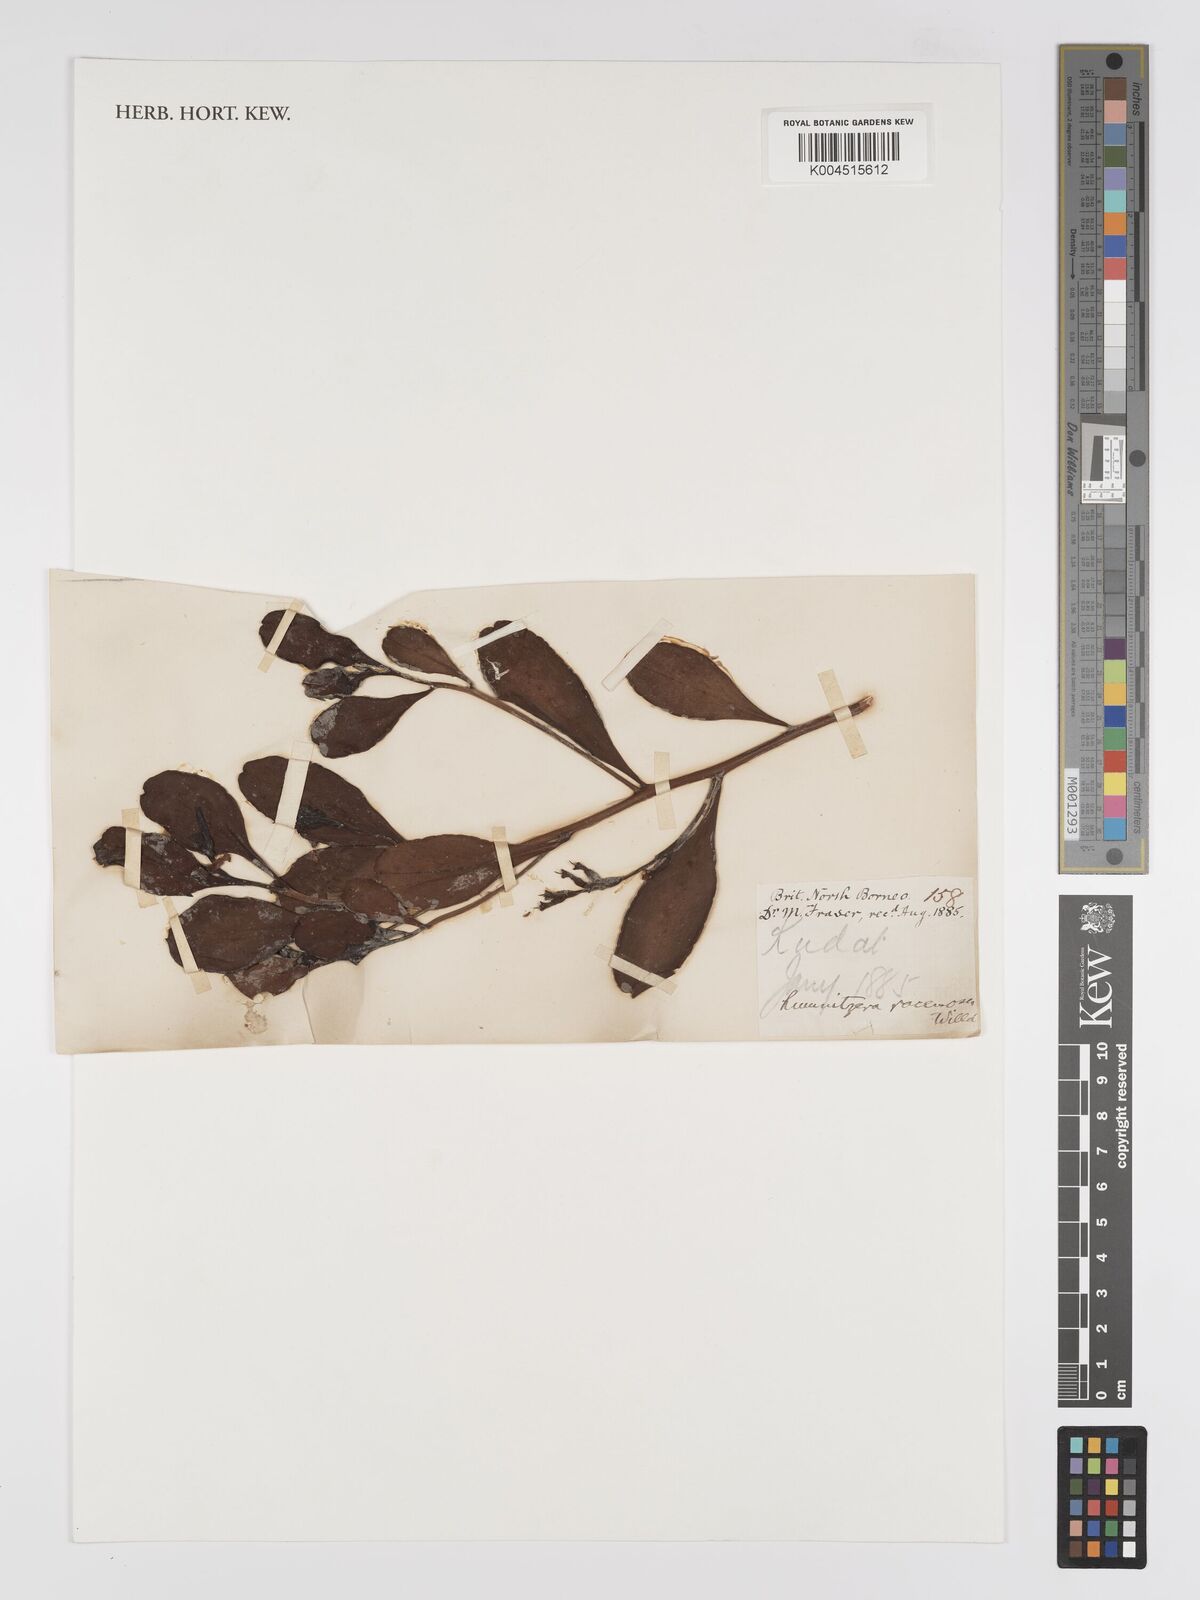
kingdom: Plantae
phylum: Tracheophyta
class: Magnoliopsida
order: Myrtales
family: Combretaceae
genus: Lumnitzera
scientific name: Lumnitzera racemosa
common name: White-flowered black mangrove
